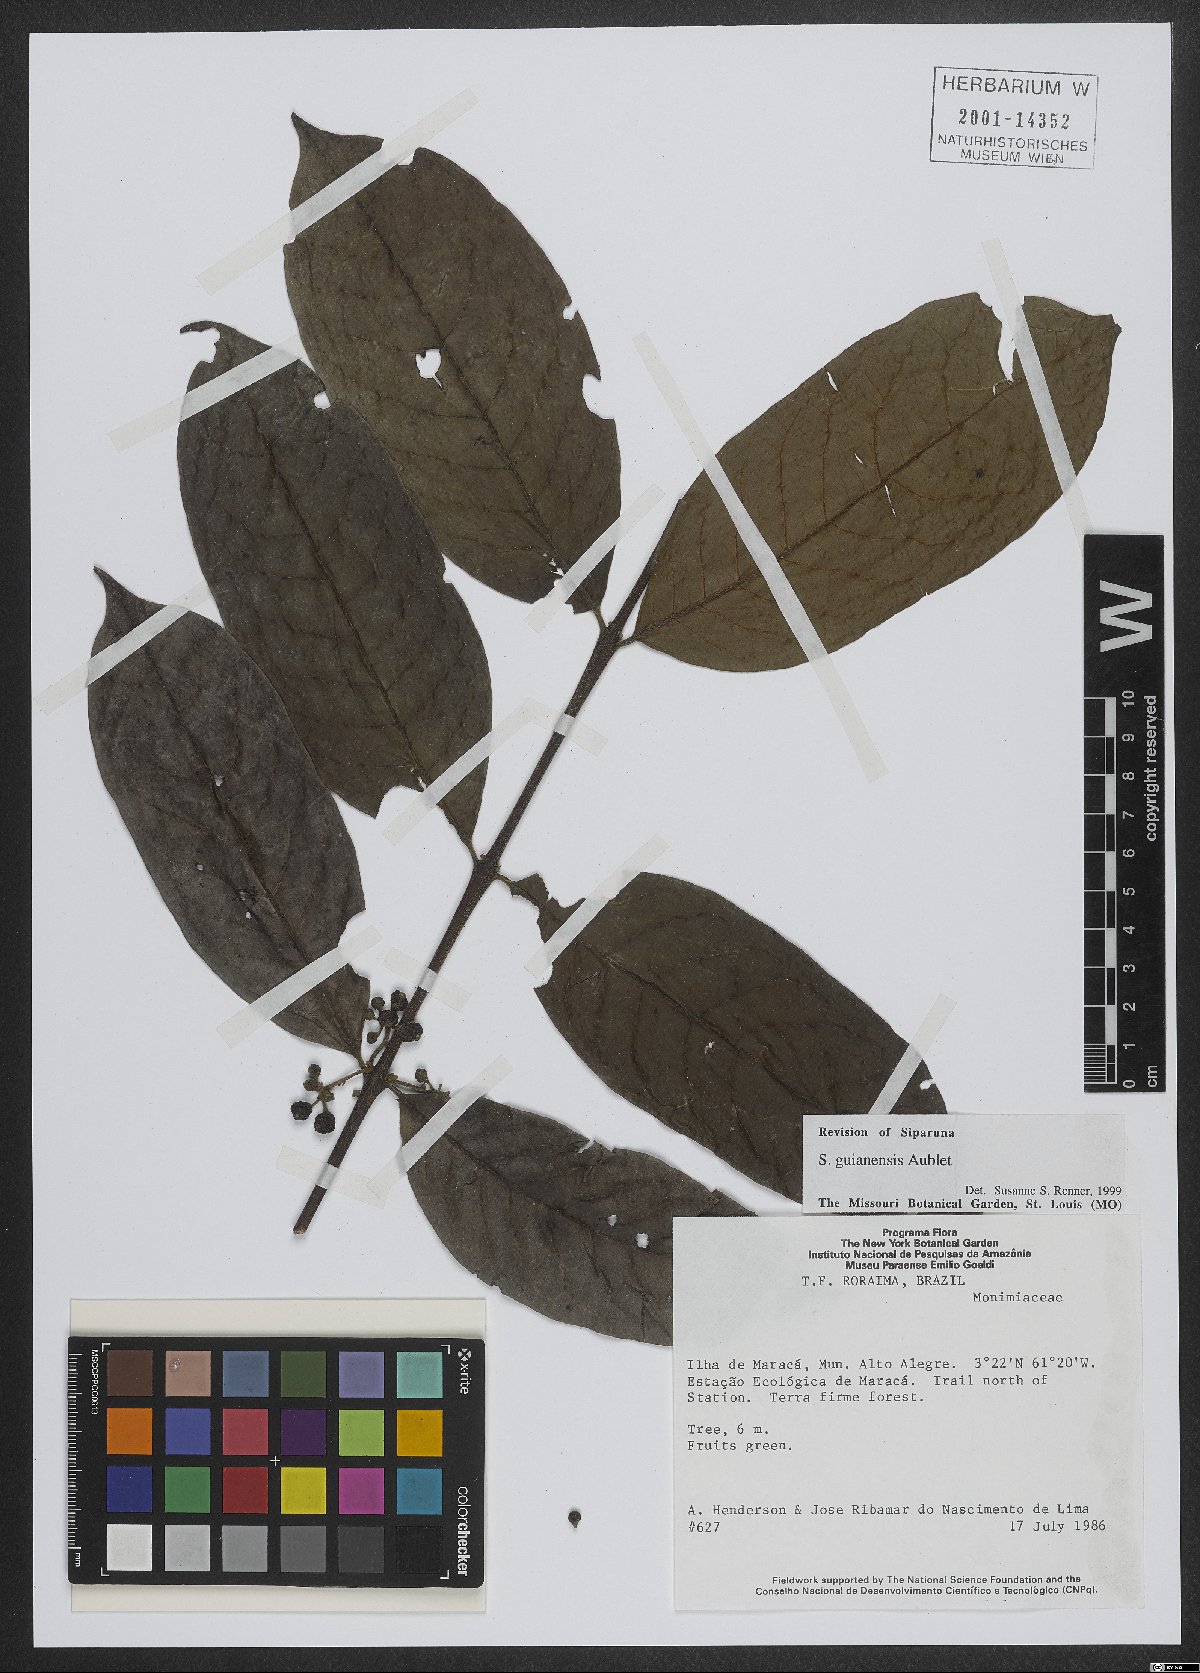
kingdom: Plantae
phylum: Tracheophyta
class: Magnoliopsida
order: Laurales
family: Siparunaceae
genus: Siparuna
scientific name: Siparuna guianensis
